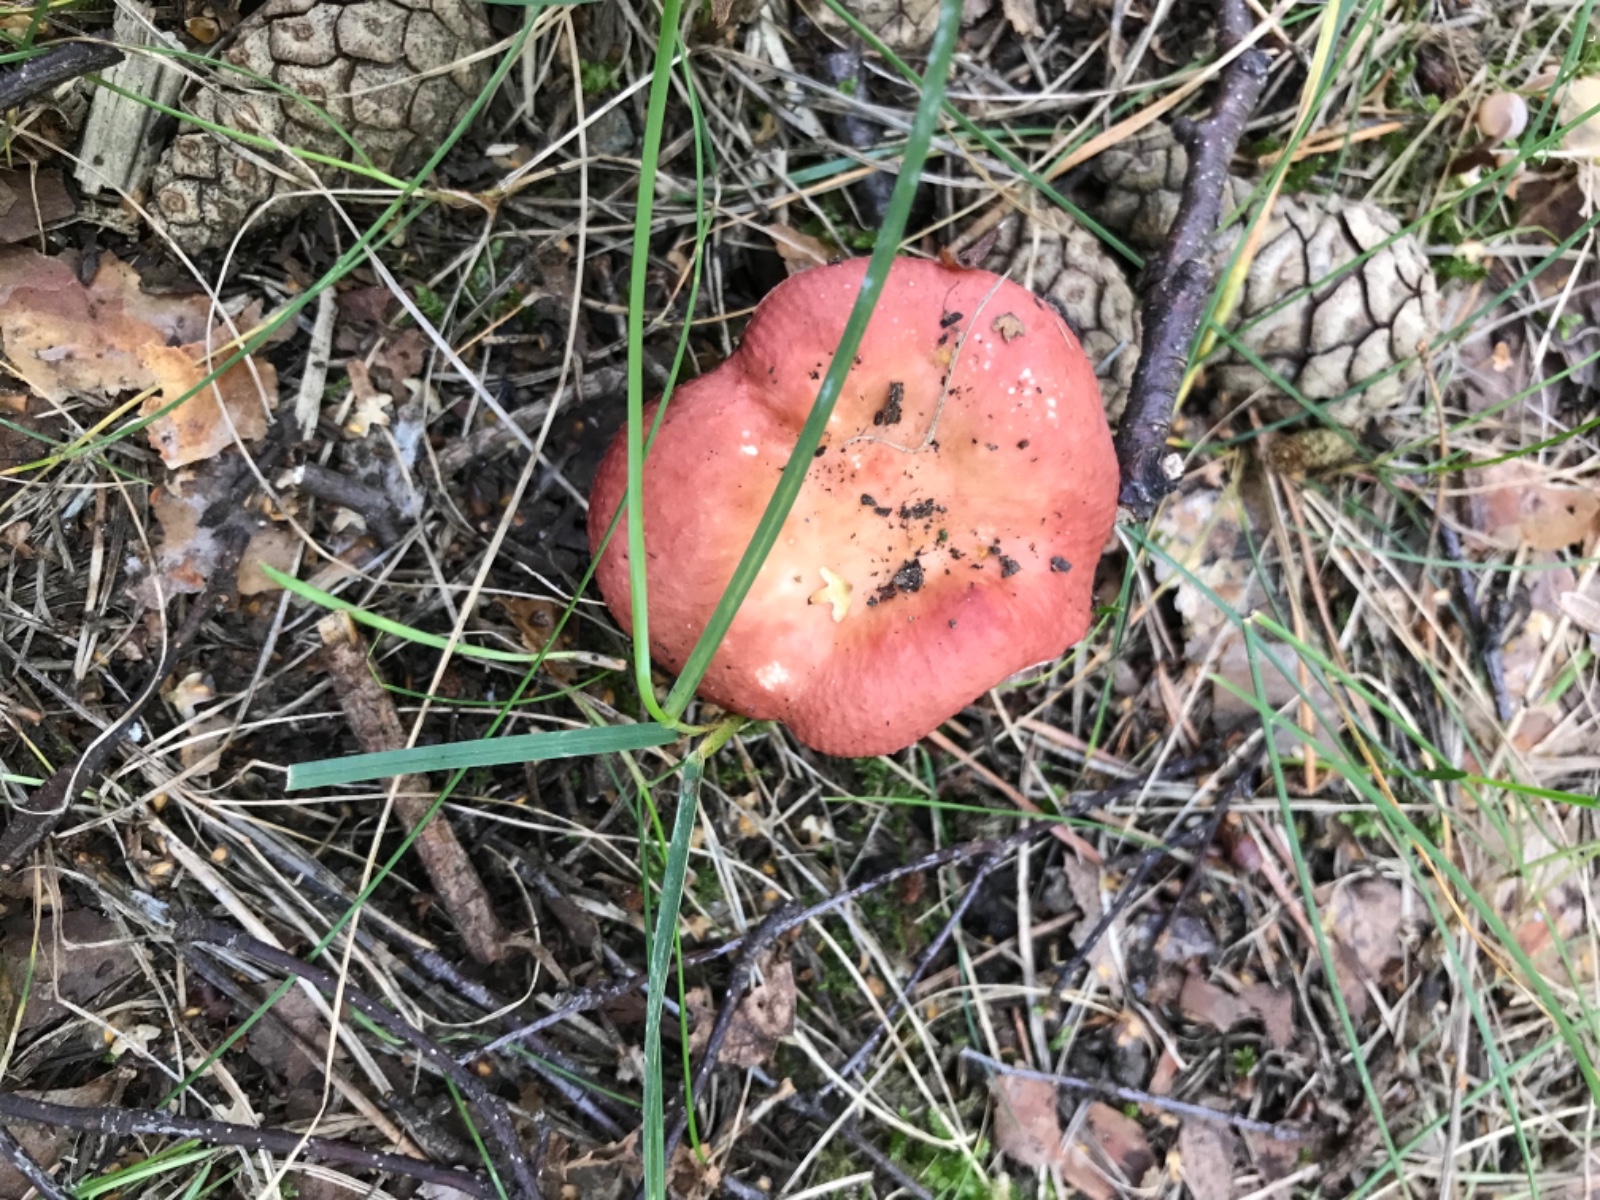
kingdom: Fungi
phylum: Basidiomycota
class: Agaricomycetes
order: Russulales
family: Russulaceae
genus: Russula
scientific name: Russula velenovskyi
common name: orangerød skørhat
